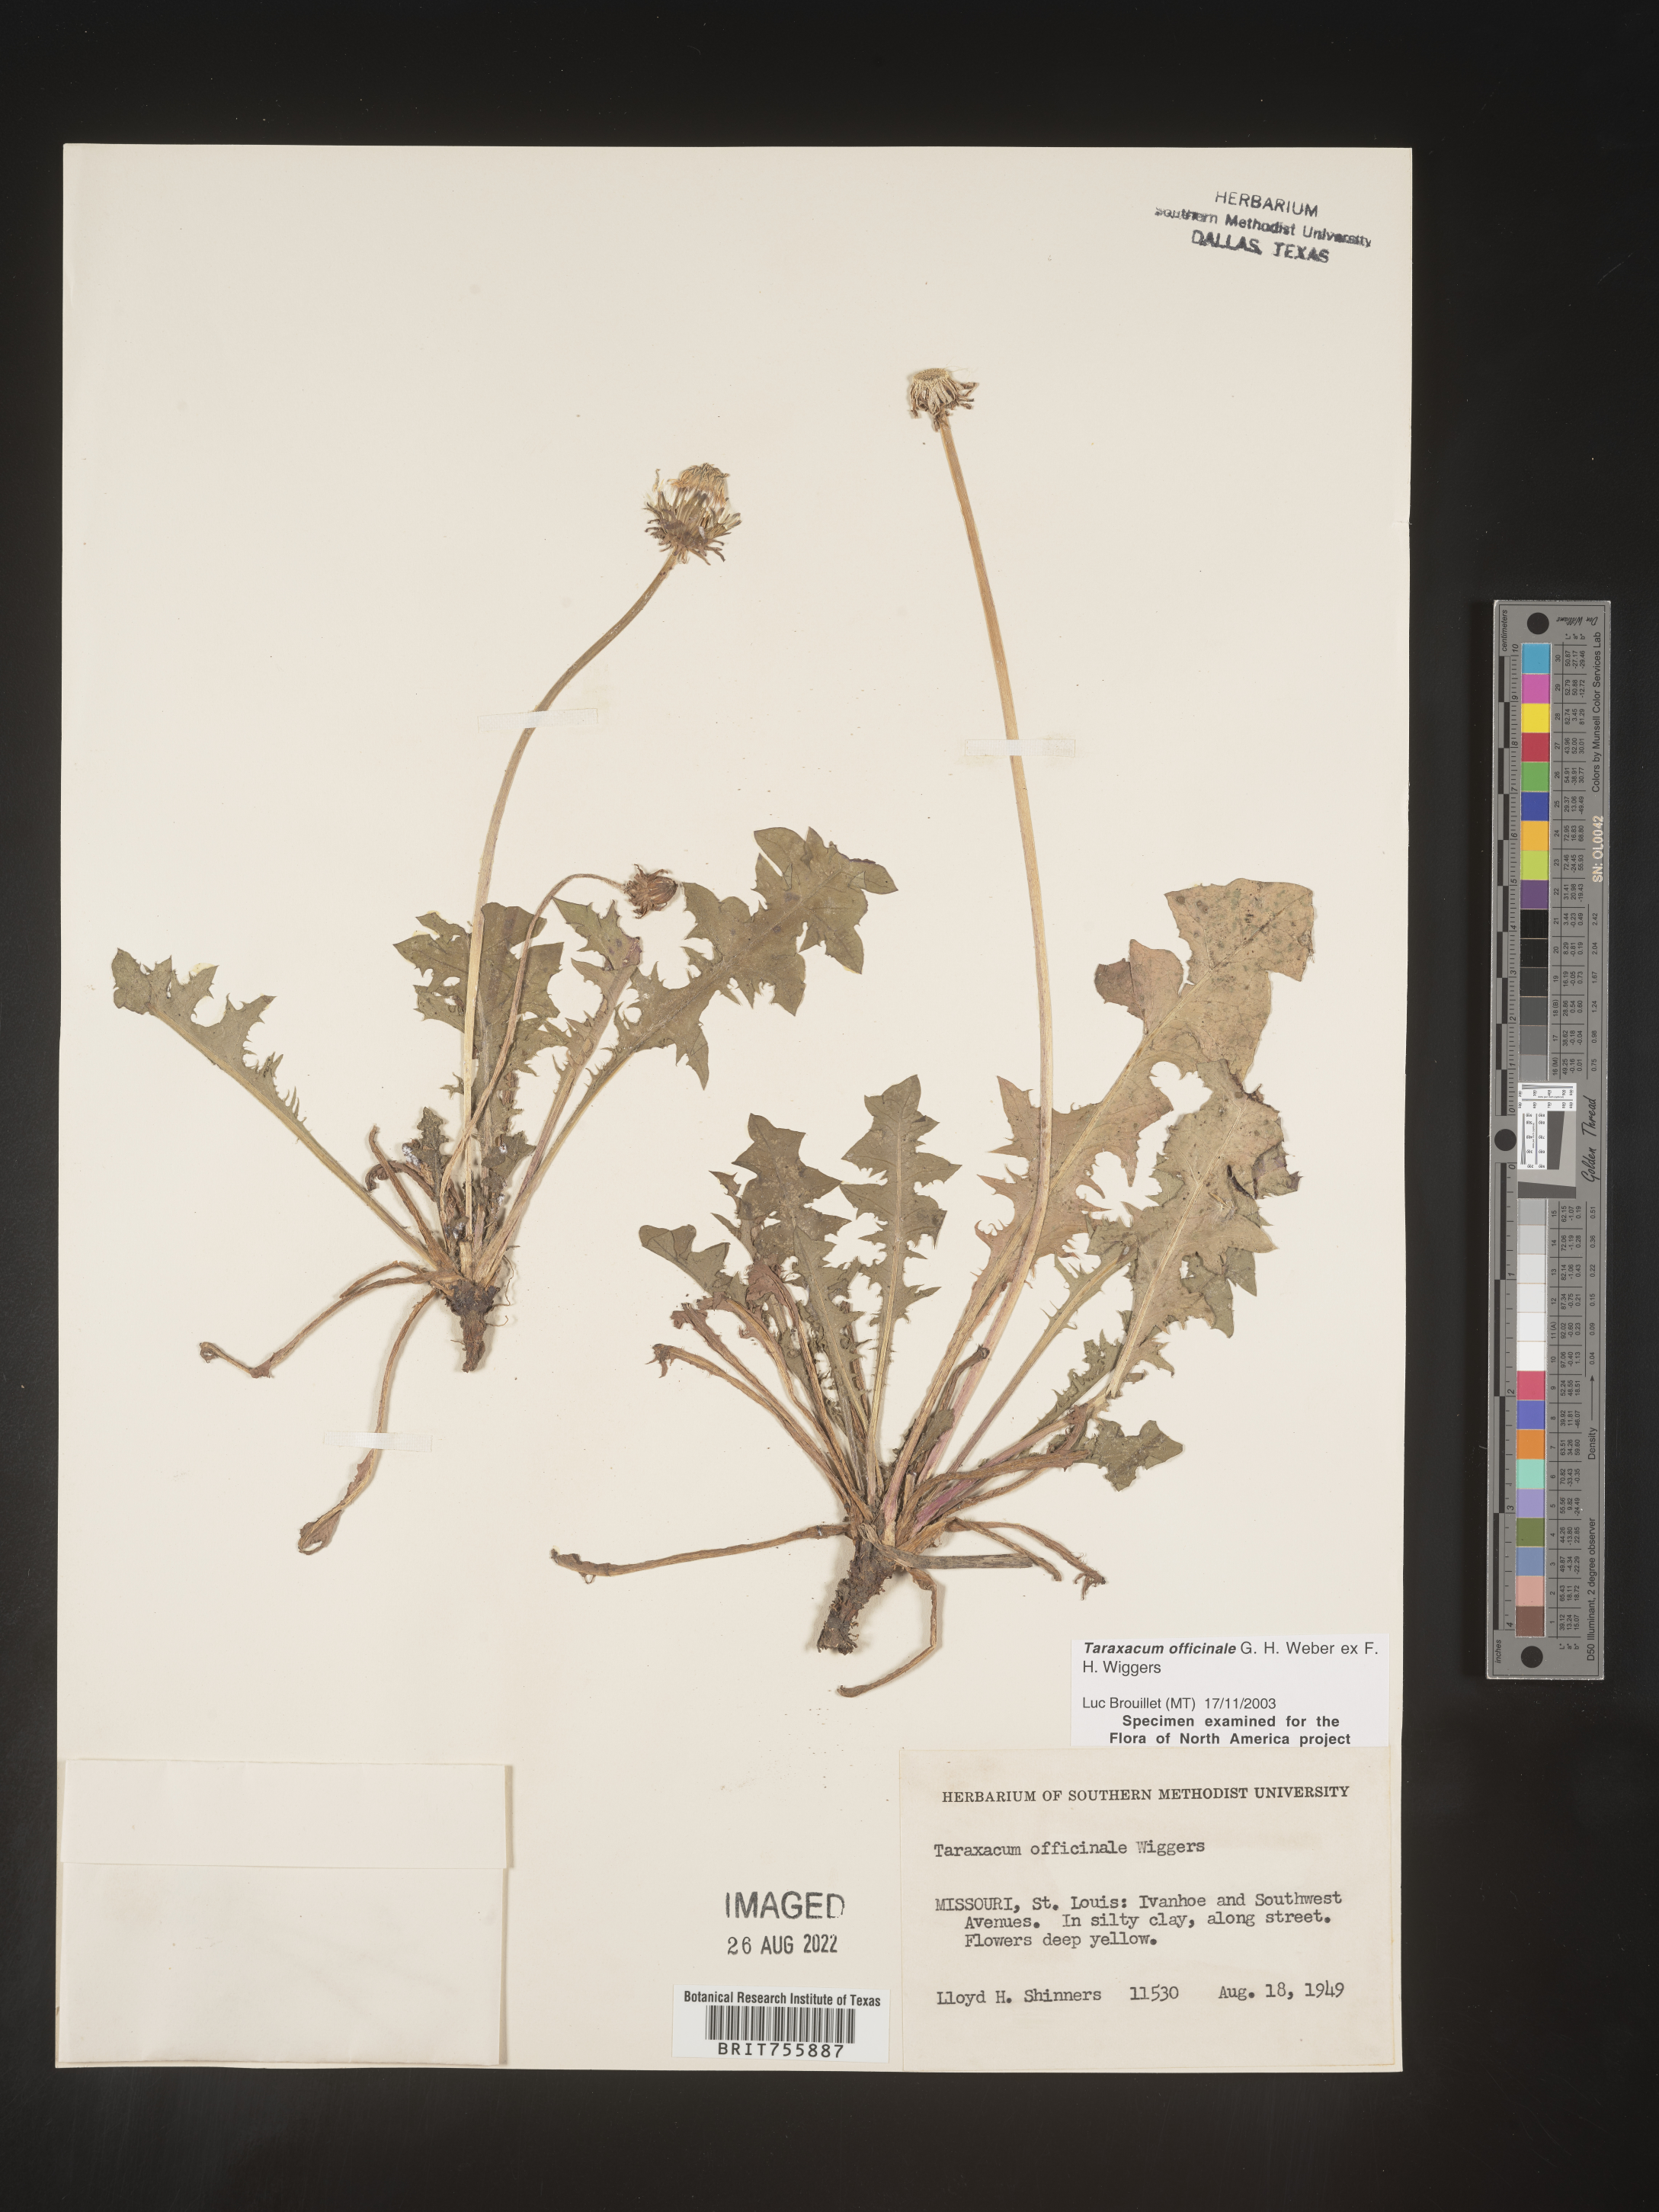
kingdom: Plantae
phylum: Tracheophyta
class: Magnoliopsida
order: Asterales
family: Asteraceae
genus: Taraxacum
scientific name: Taraxacum officinale
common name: Common dandelion
